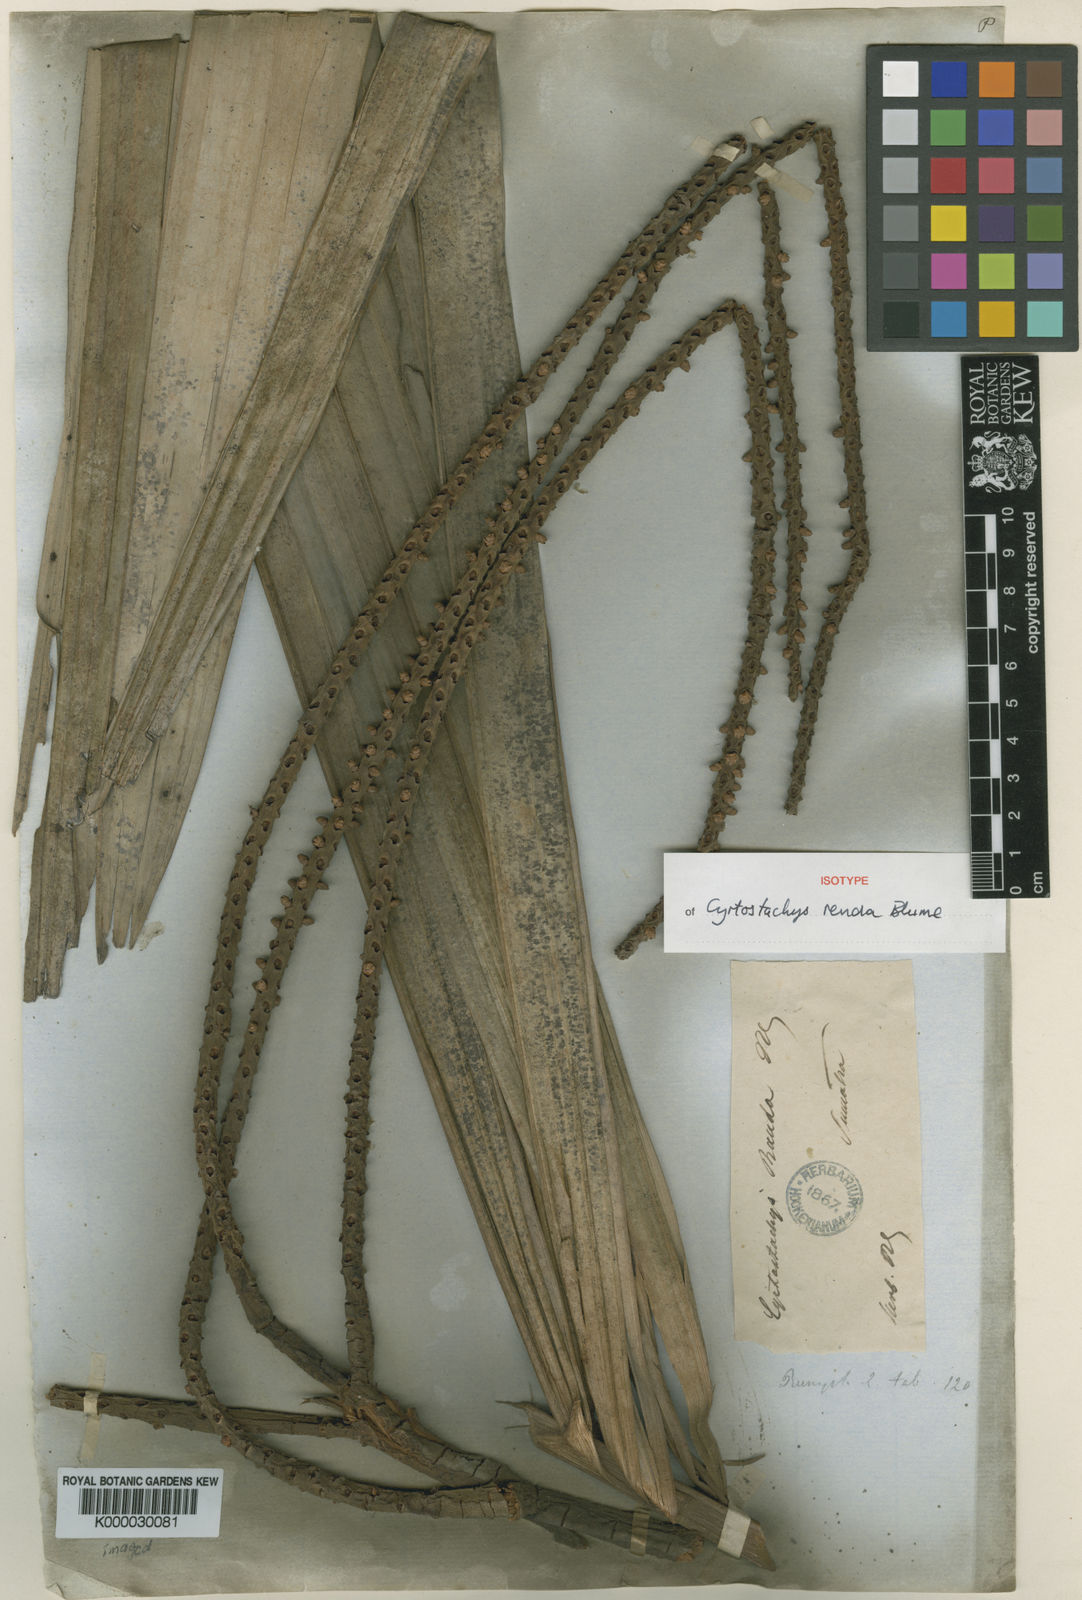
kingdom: Plantae
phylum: Tracheophyta
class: Liliopsida
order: Arecales
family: Arecaceae
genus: Cyrtostachys
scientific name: Cyrtostachys renda
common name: Lipstick palm
